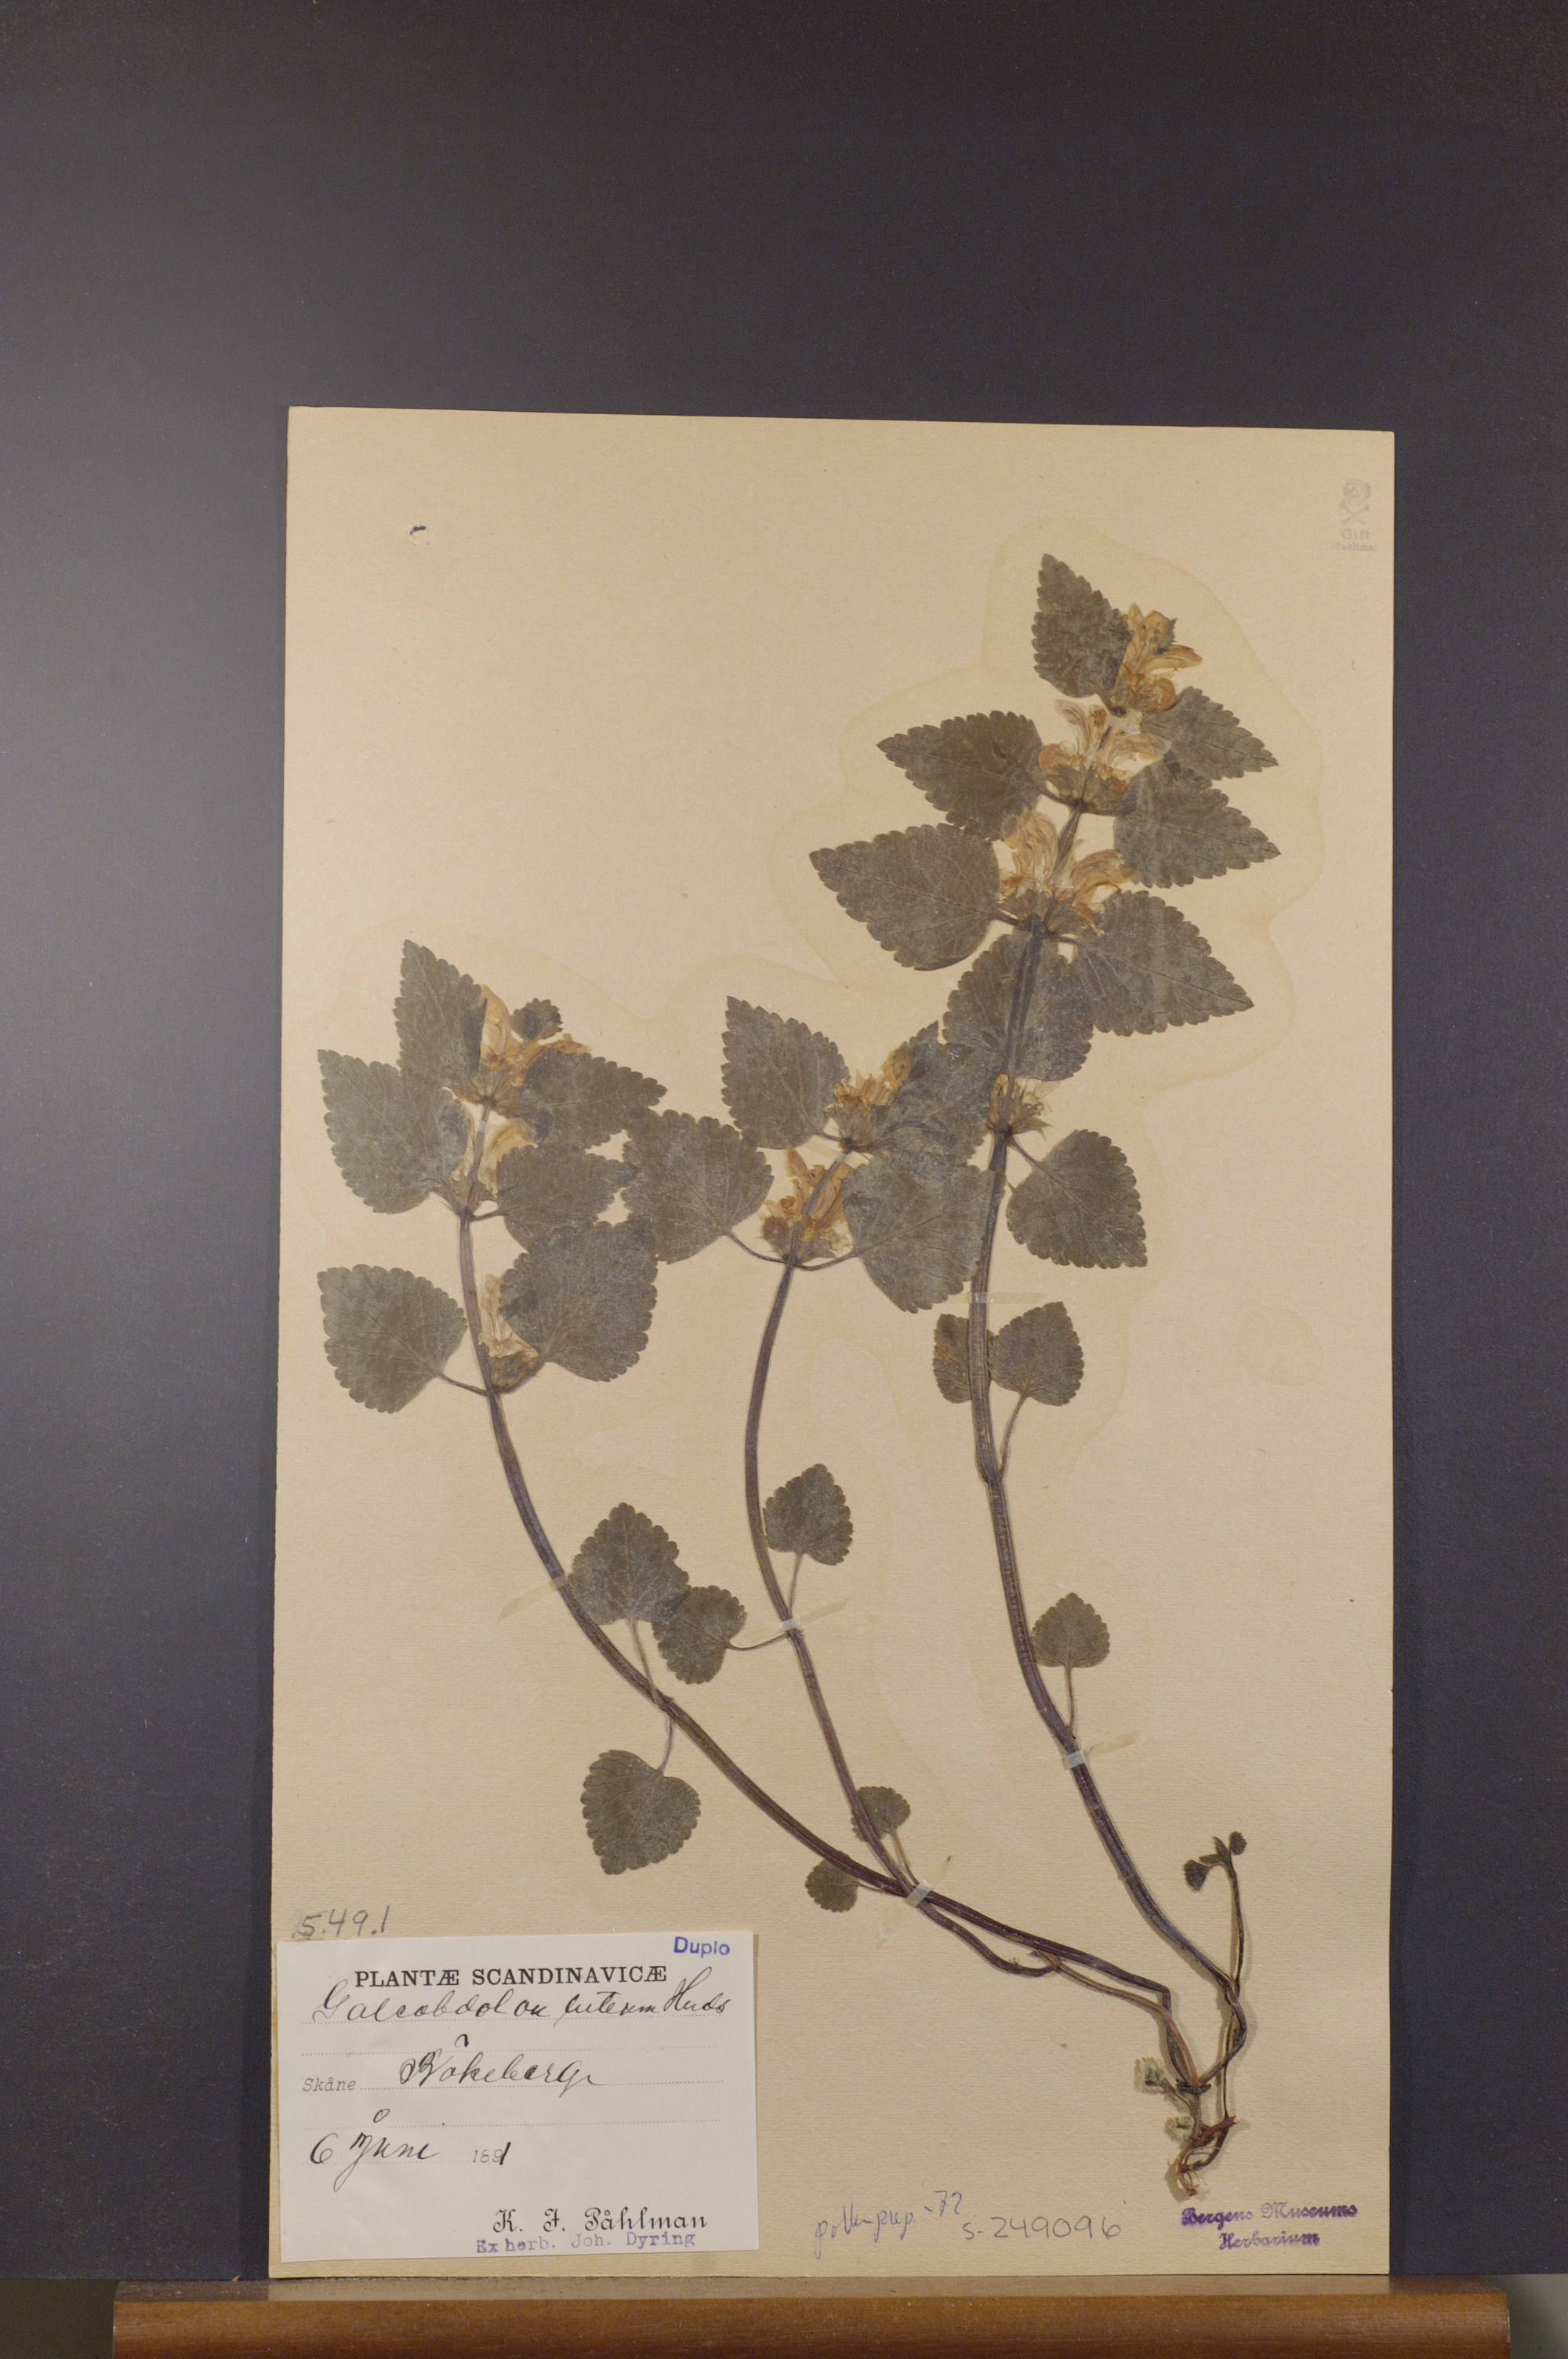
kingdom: Plantae
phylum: Tracheophyta
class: Magnoliopsida
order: Lamiales
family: Lamiaceae
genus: Lamium
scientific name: Lamium galeobdolon
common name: Yellow archangel
